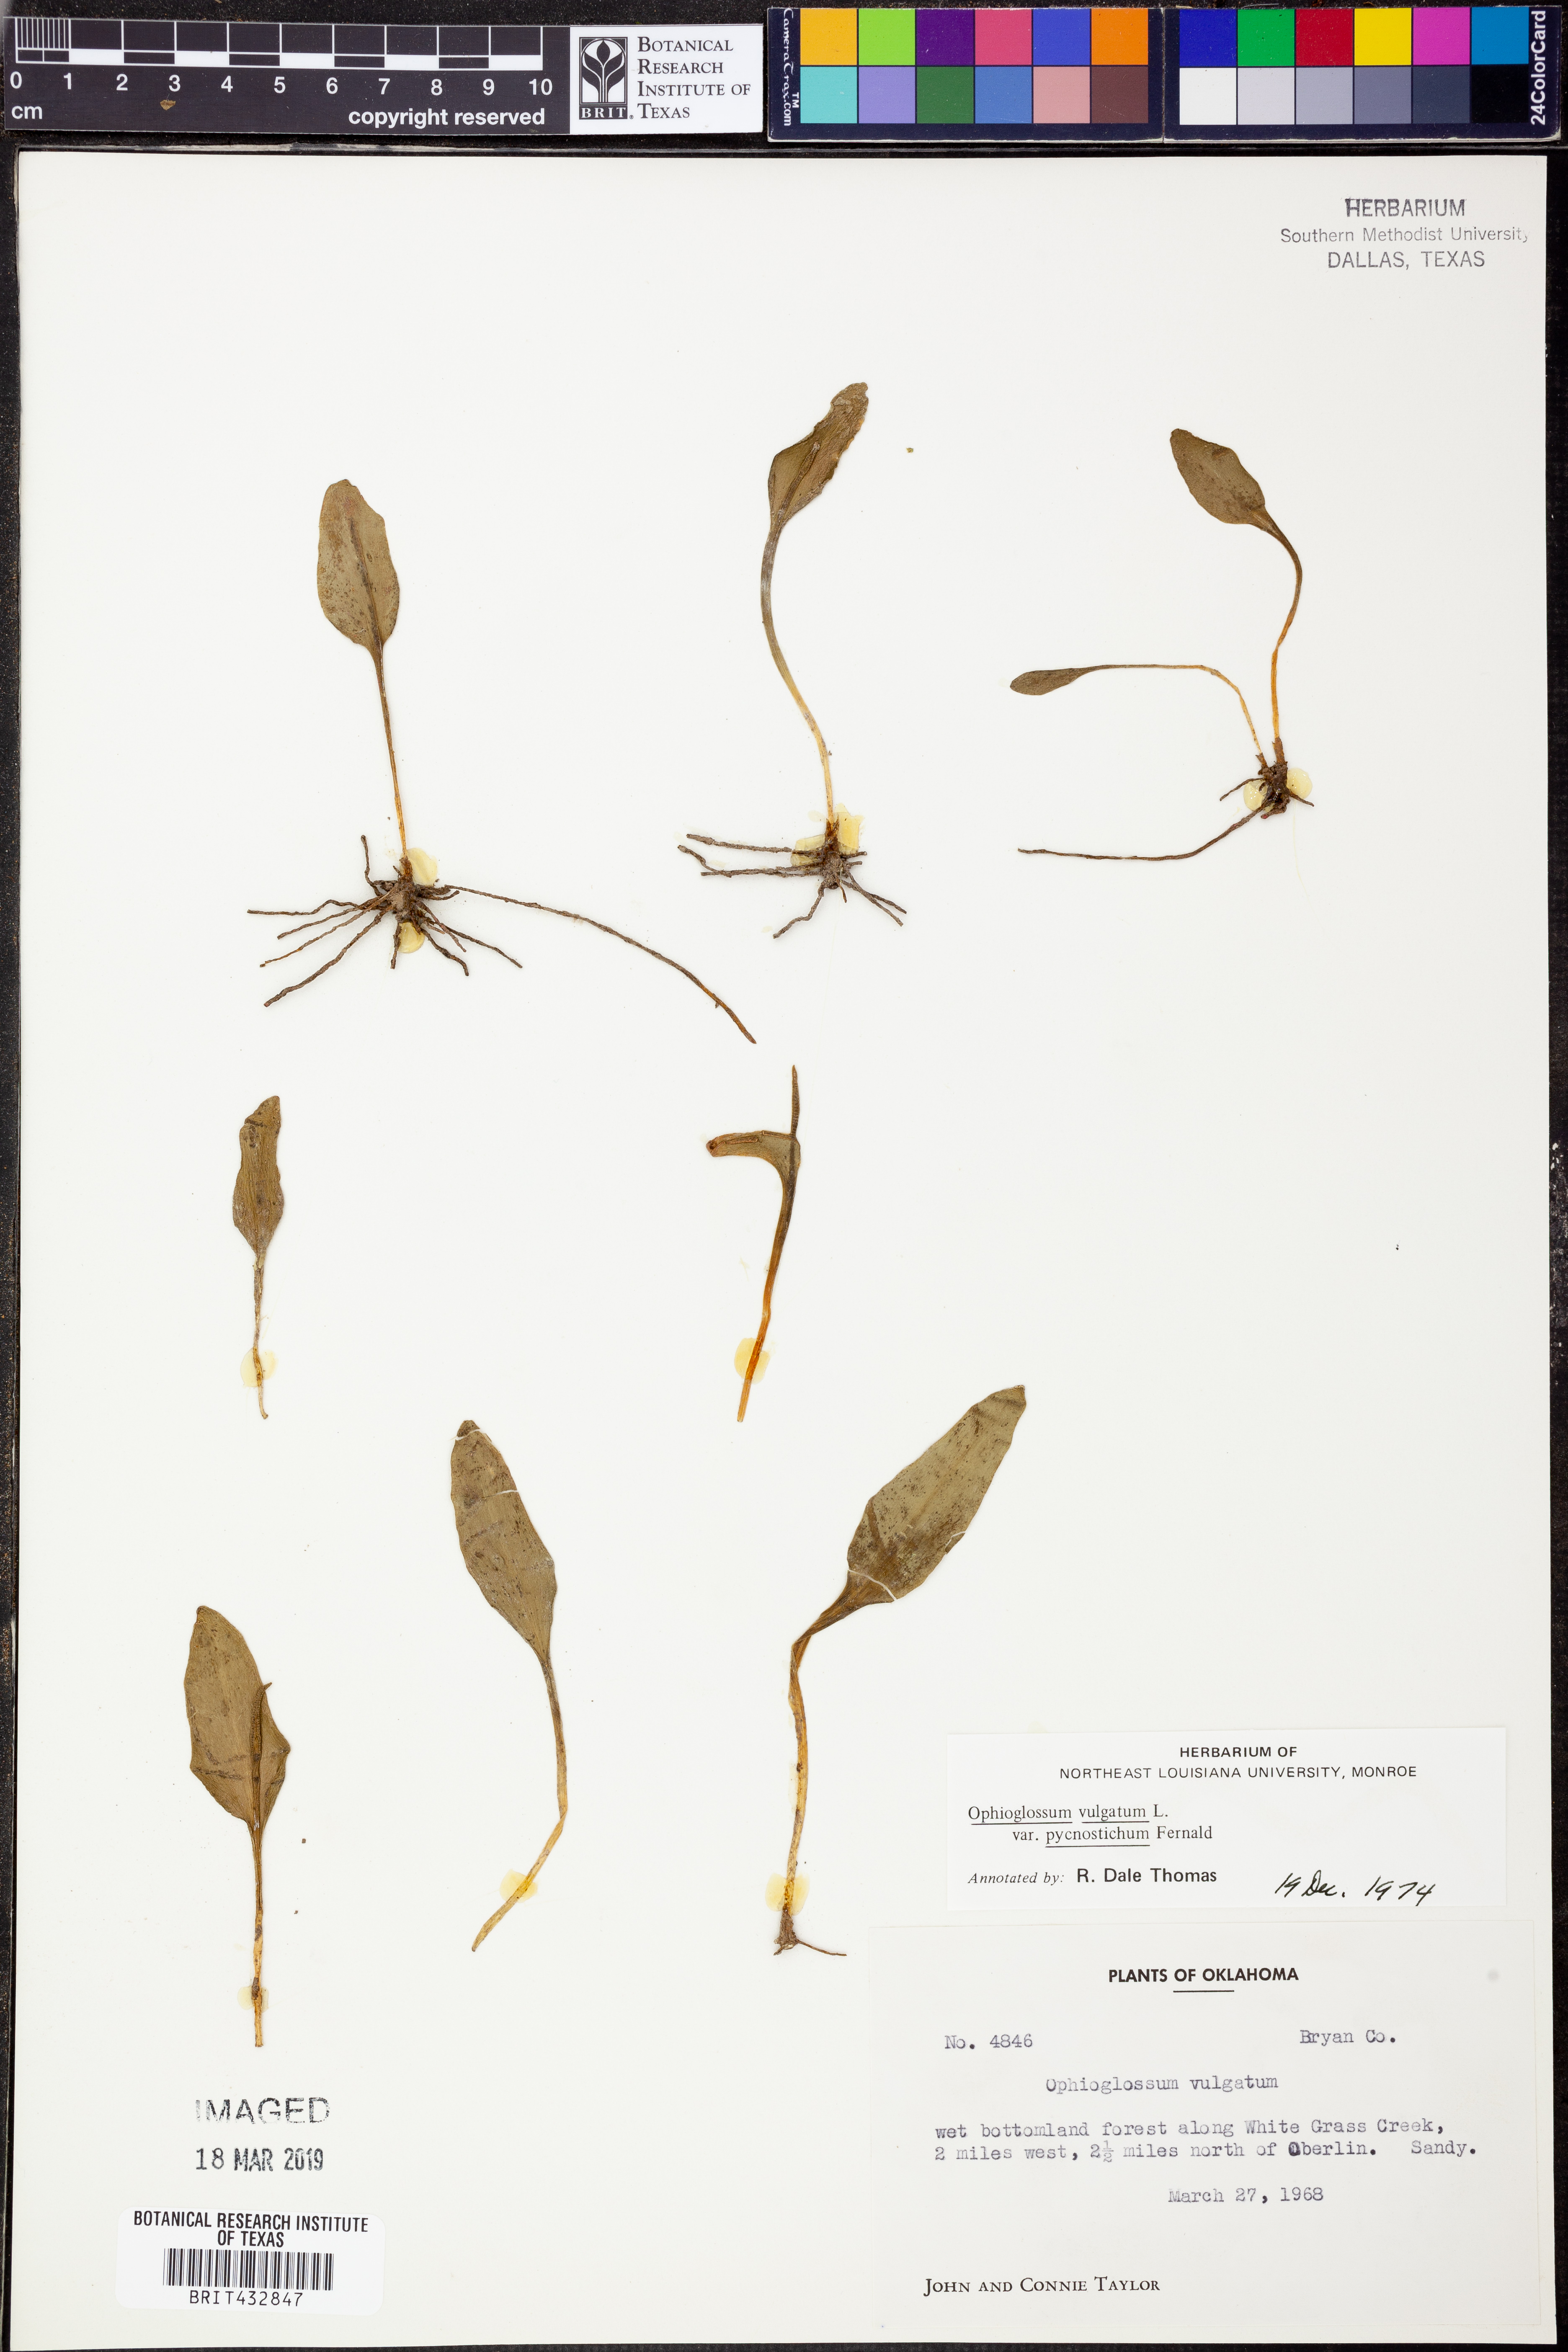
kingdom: Plantae
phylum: Tracheophyta
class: Polypodiopsida
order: Ophioglossales
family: Ophioglossaceae
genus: Ophioglossum
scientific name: Ophioglossum vulgatum
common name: Adder's-tongue
